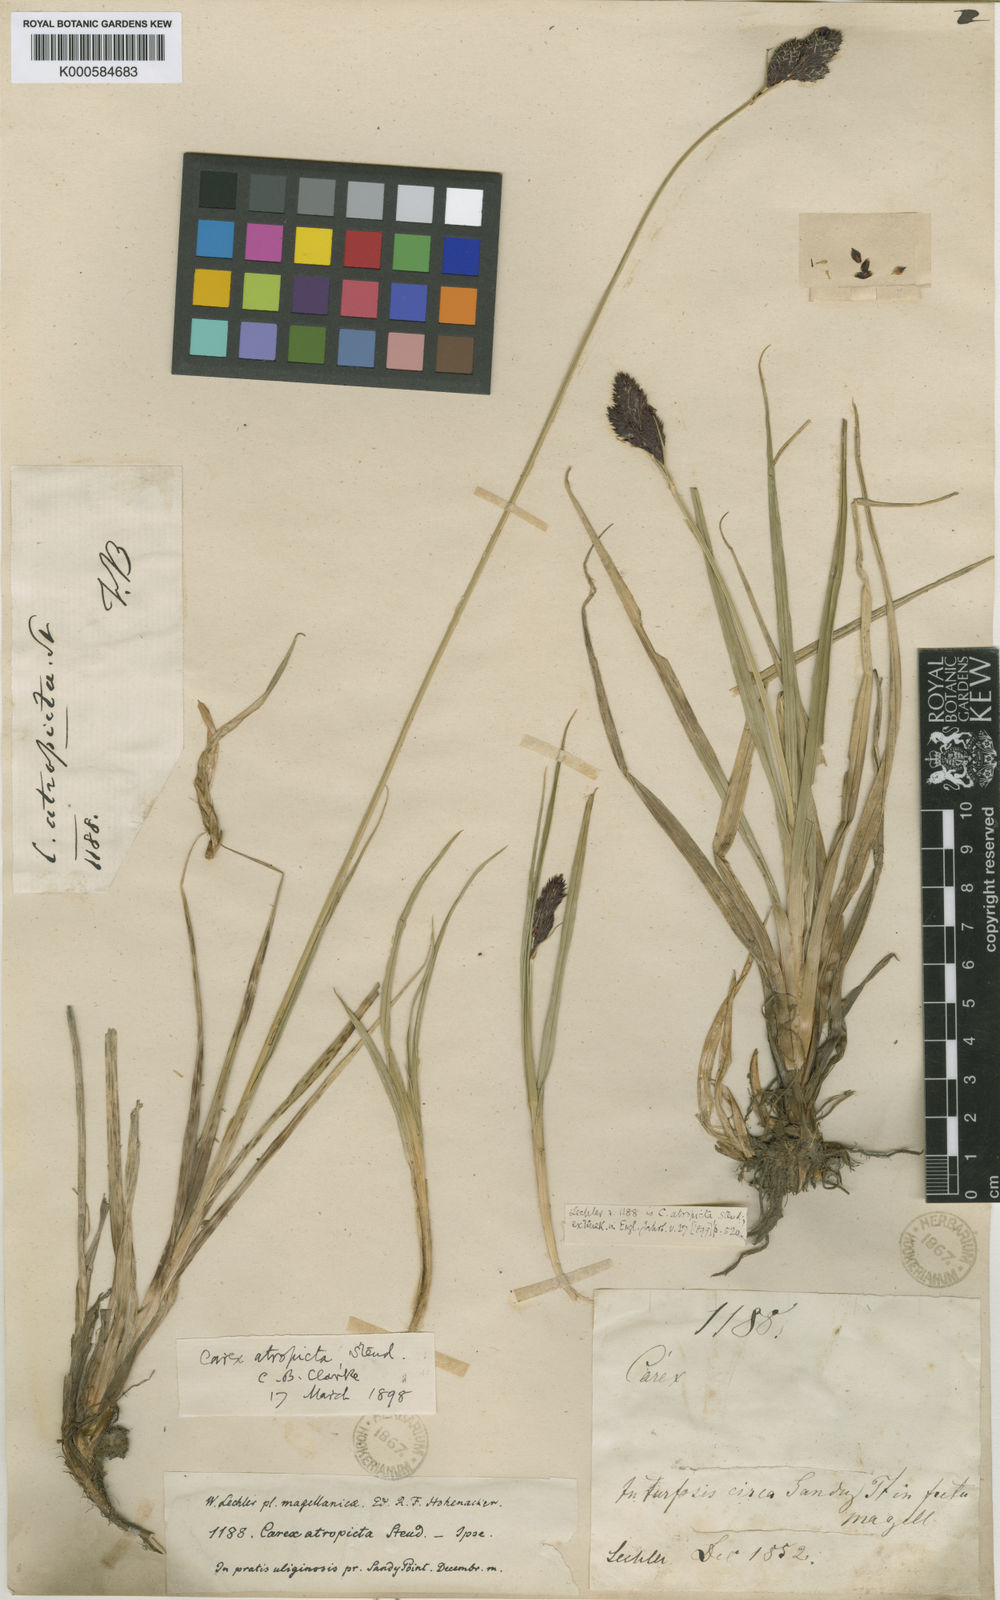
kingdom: Plantae
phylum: Tracheophyta
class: Liliopsida
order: Poales
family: Cyperaceae
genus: Carex
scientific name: Carex atropicta
